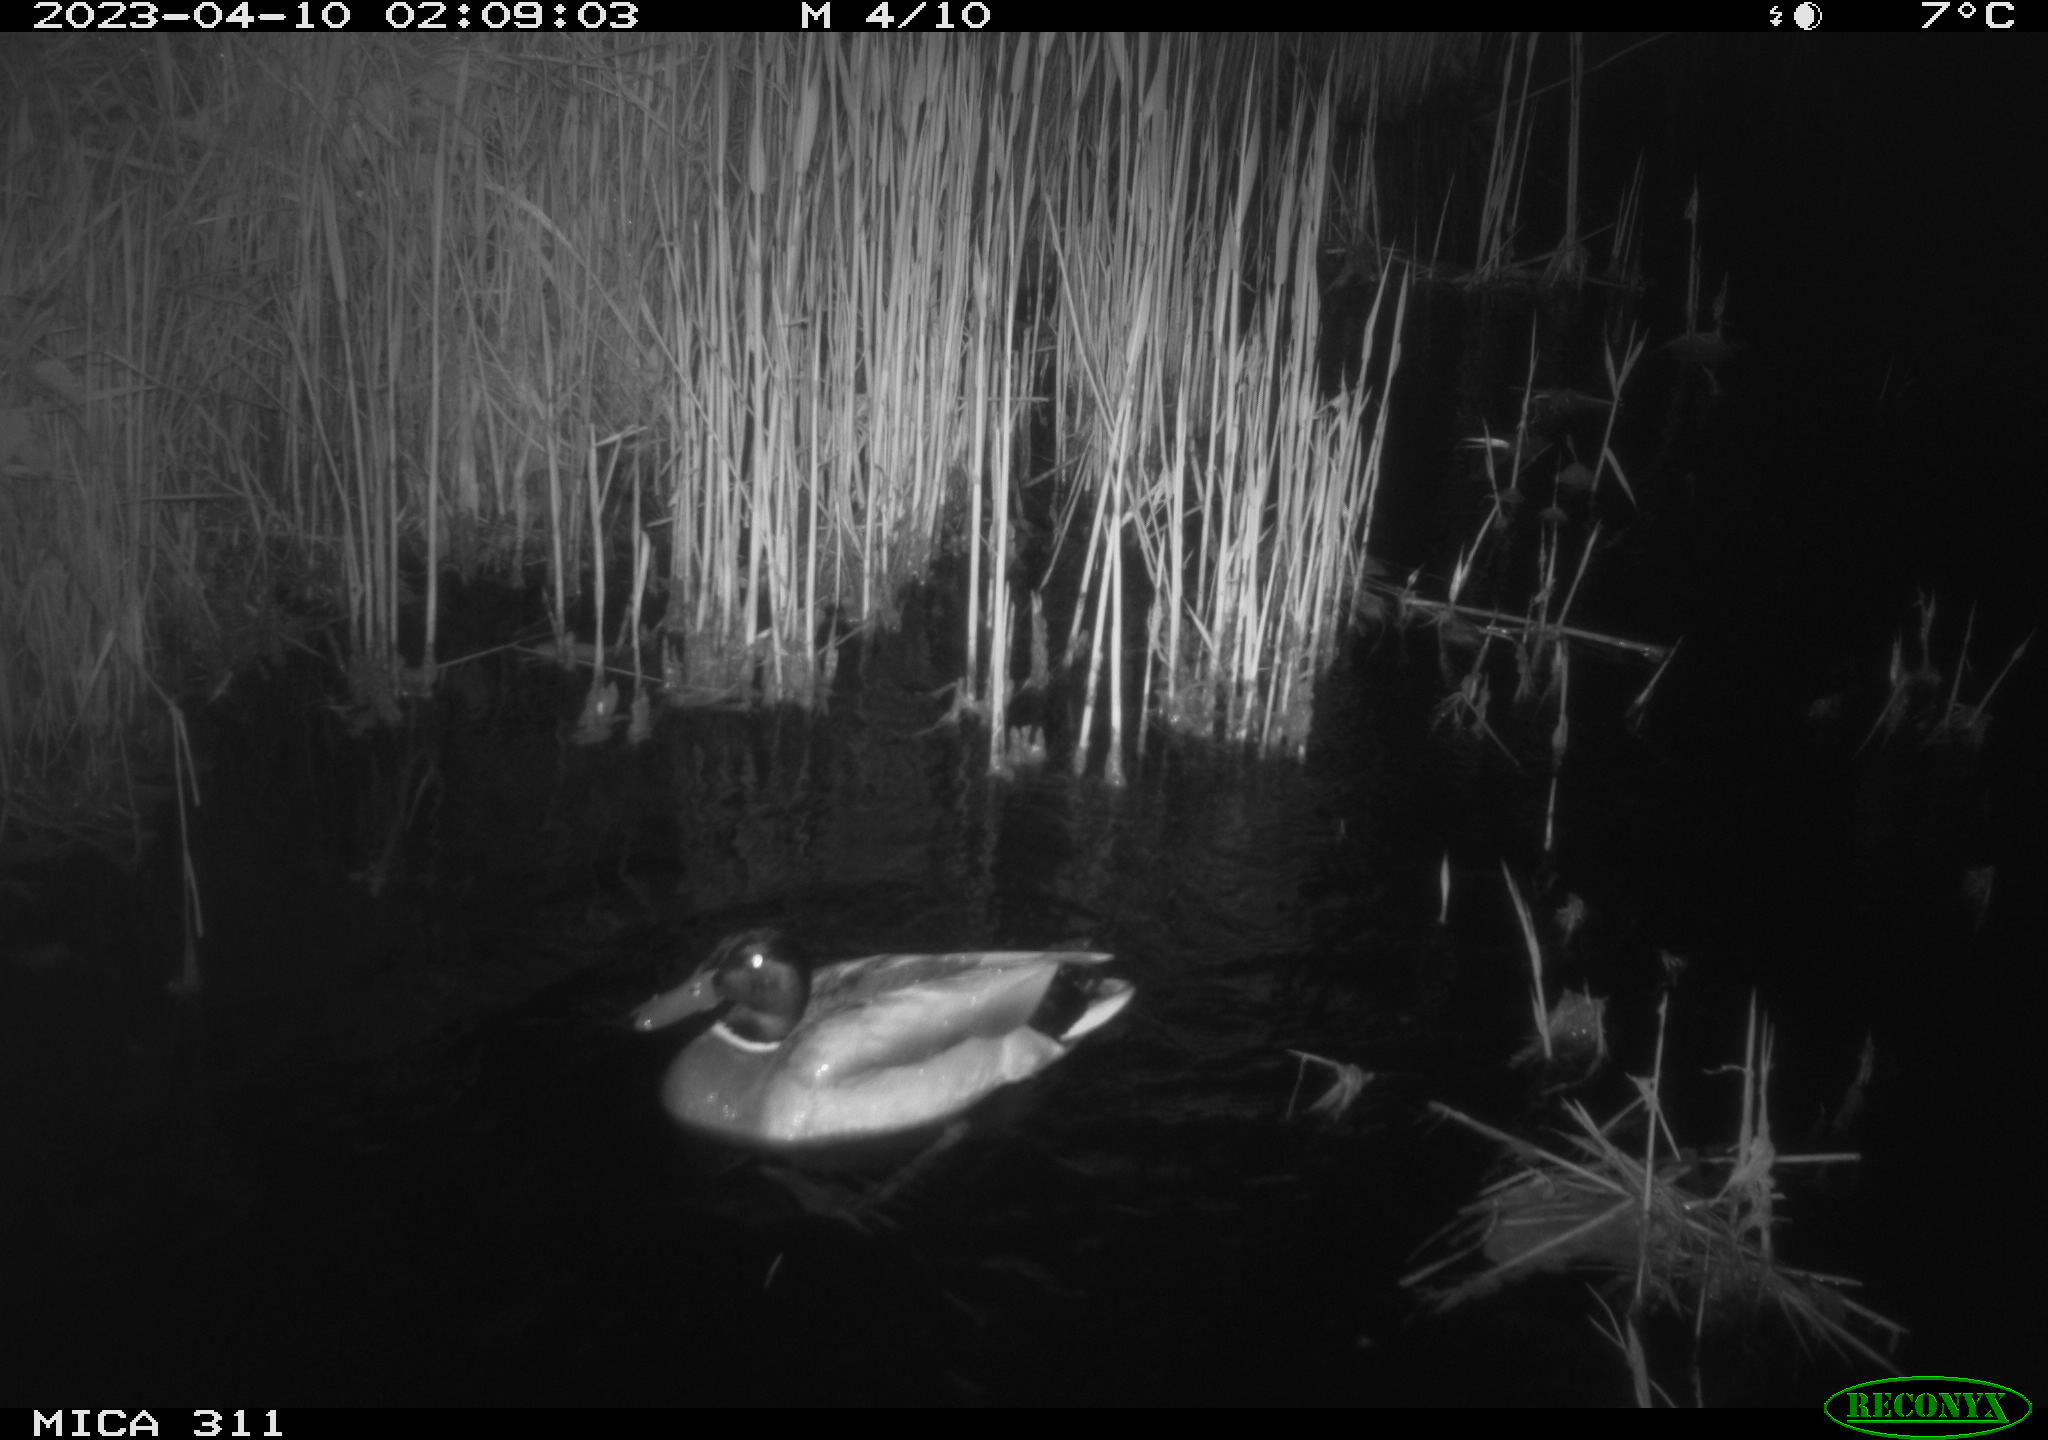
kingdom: Animalia
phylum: Chordata
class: Aves
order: Anseriformes
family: Anatidae
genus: Anas
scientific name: Anas
